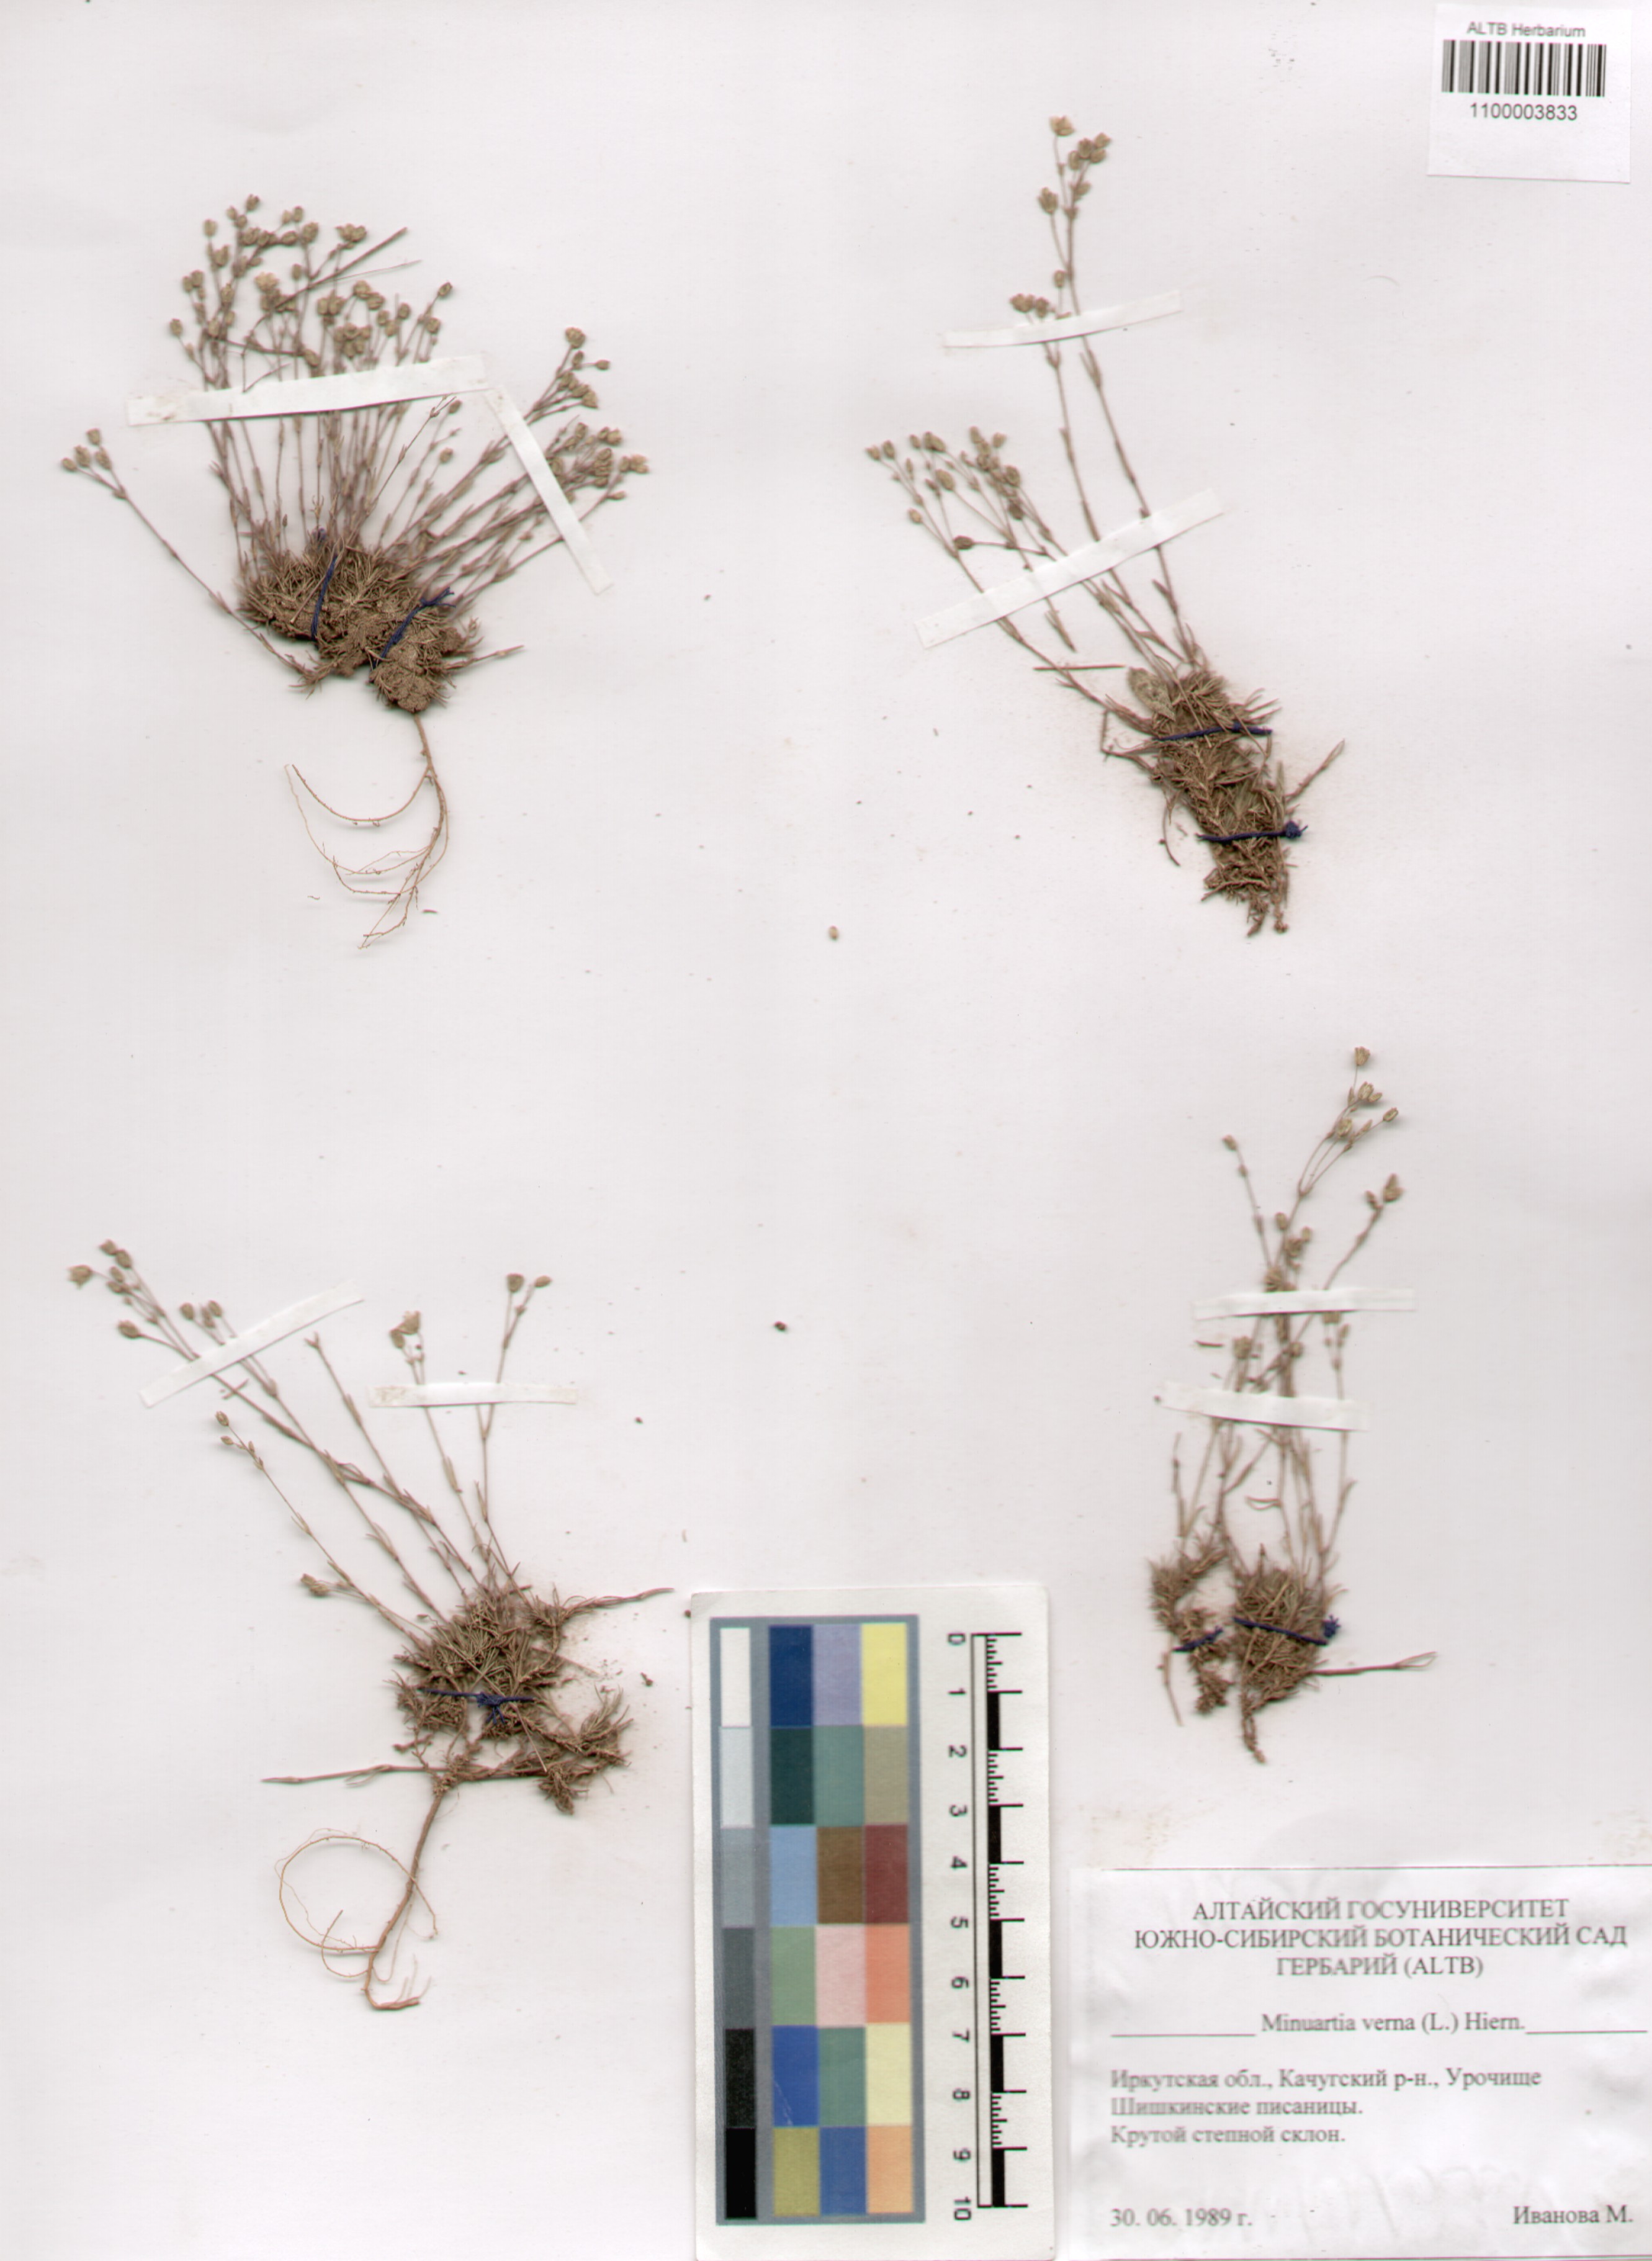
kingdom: Plantae
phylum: Tracheophyta
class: Magnoliopsida
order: Caryophyllales
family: Caryophyllaceae
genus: Sabulina
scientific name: Sabulina verna
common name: Spring sandwort
